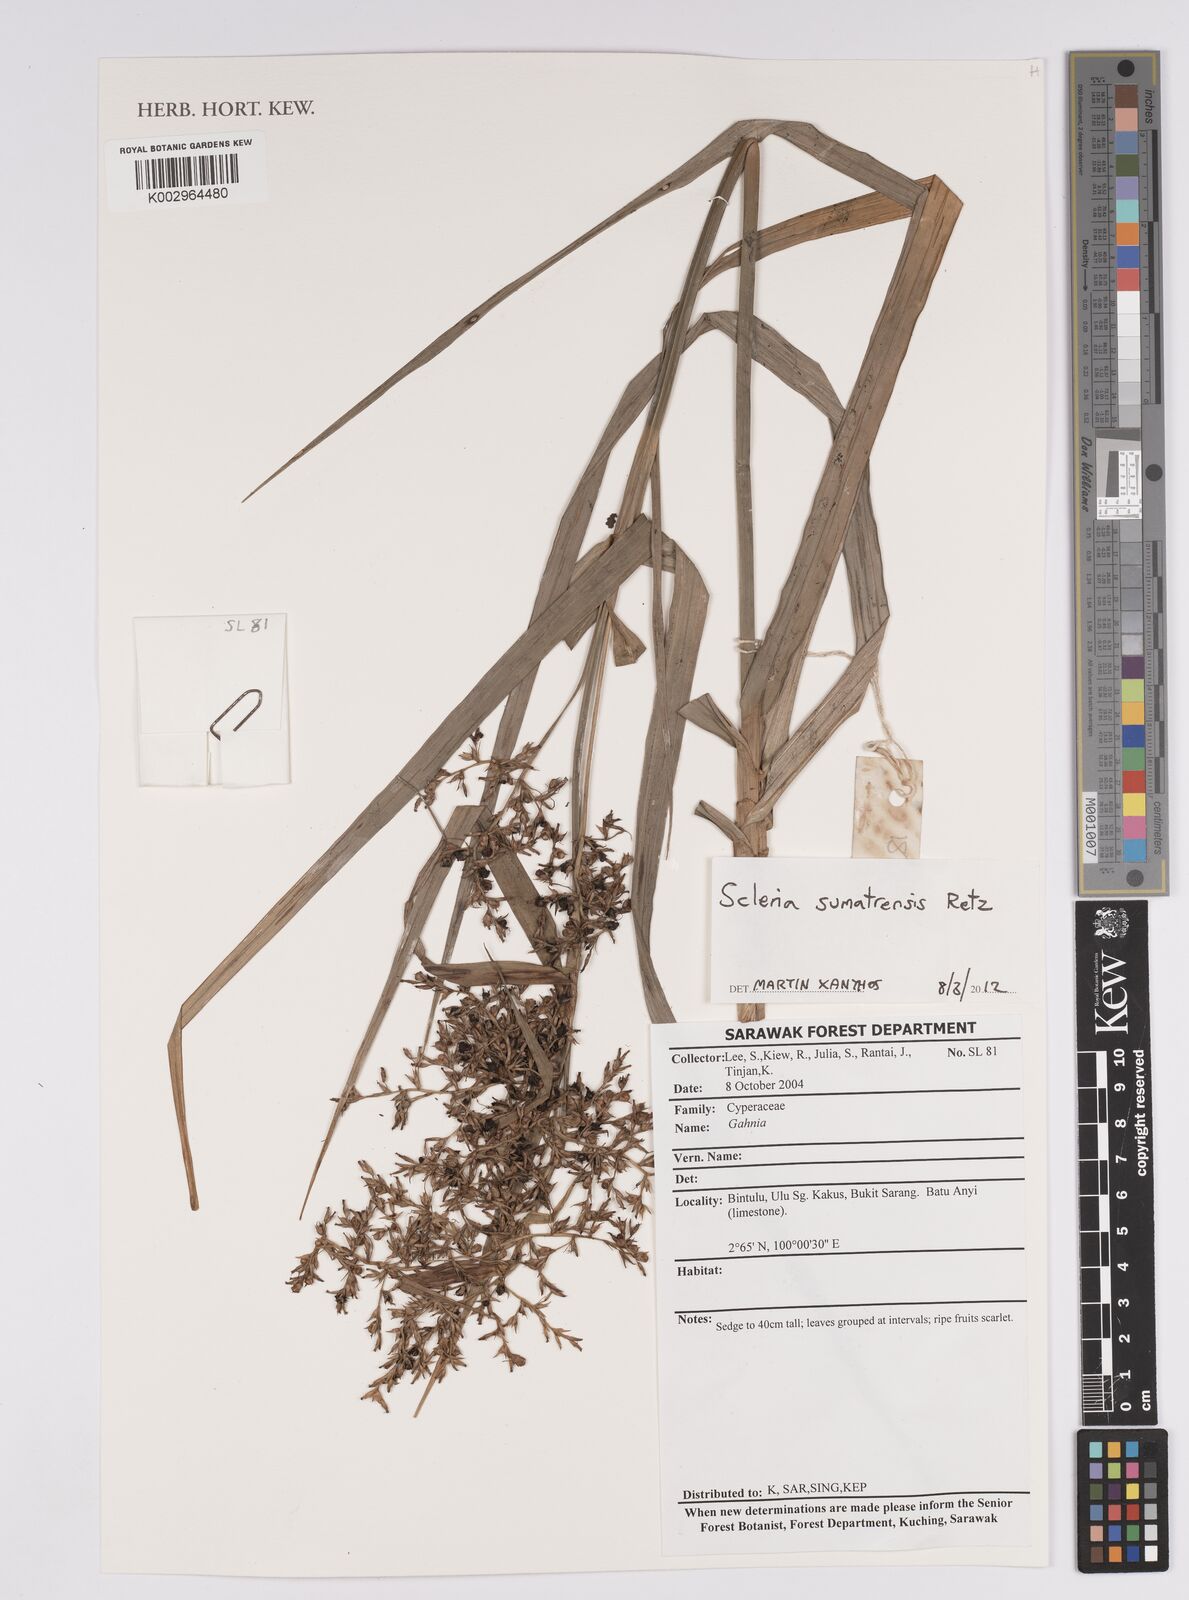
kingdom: Plantae
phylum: Tracheophyta
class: Liliopsida
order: Poales
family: Cyperaceae
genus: Scleria
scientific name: Scleria sumatrensis
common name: Sumatran scleria
